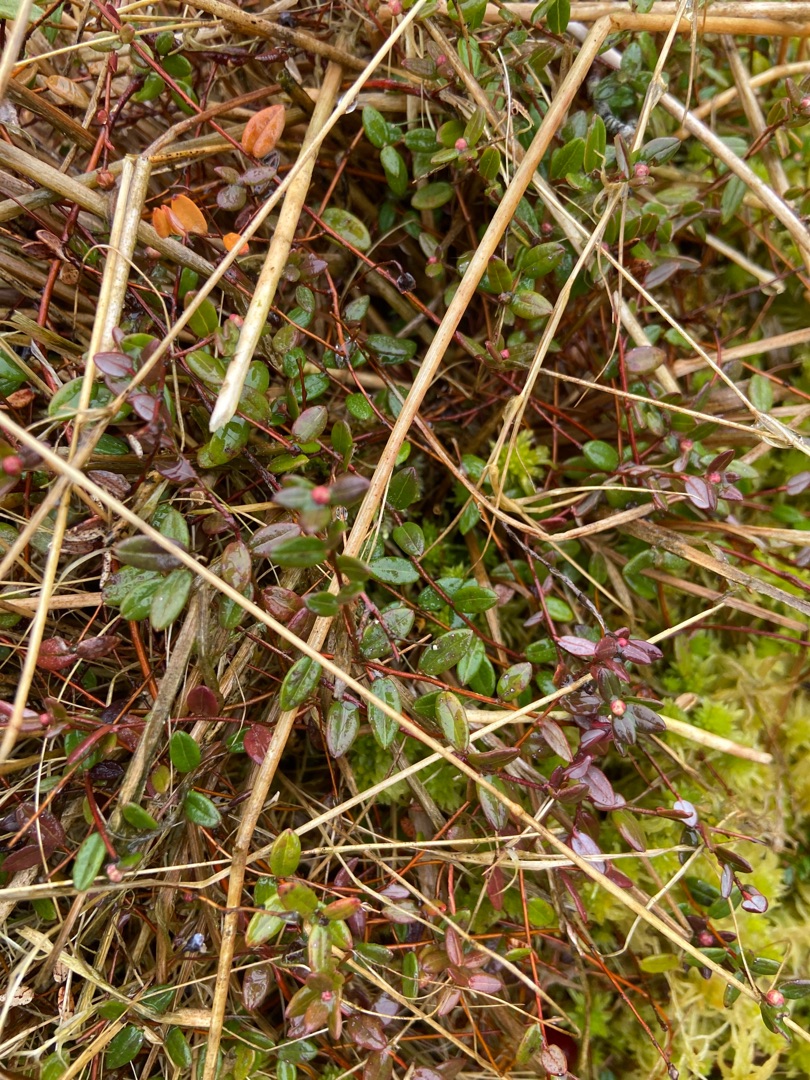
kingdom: Plantae
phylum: Tracheophyta
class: Magnoliopsida
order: Ericales
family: Ericaceae
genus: Vaccinium
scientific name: Vaccinium oxycoccos
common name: Tranebær
